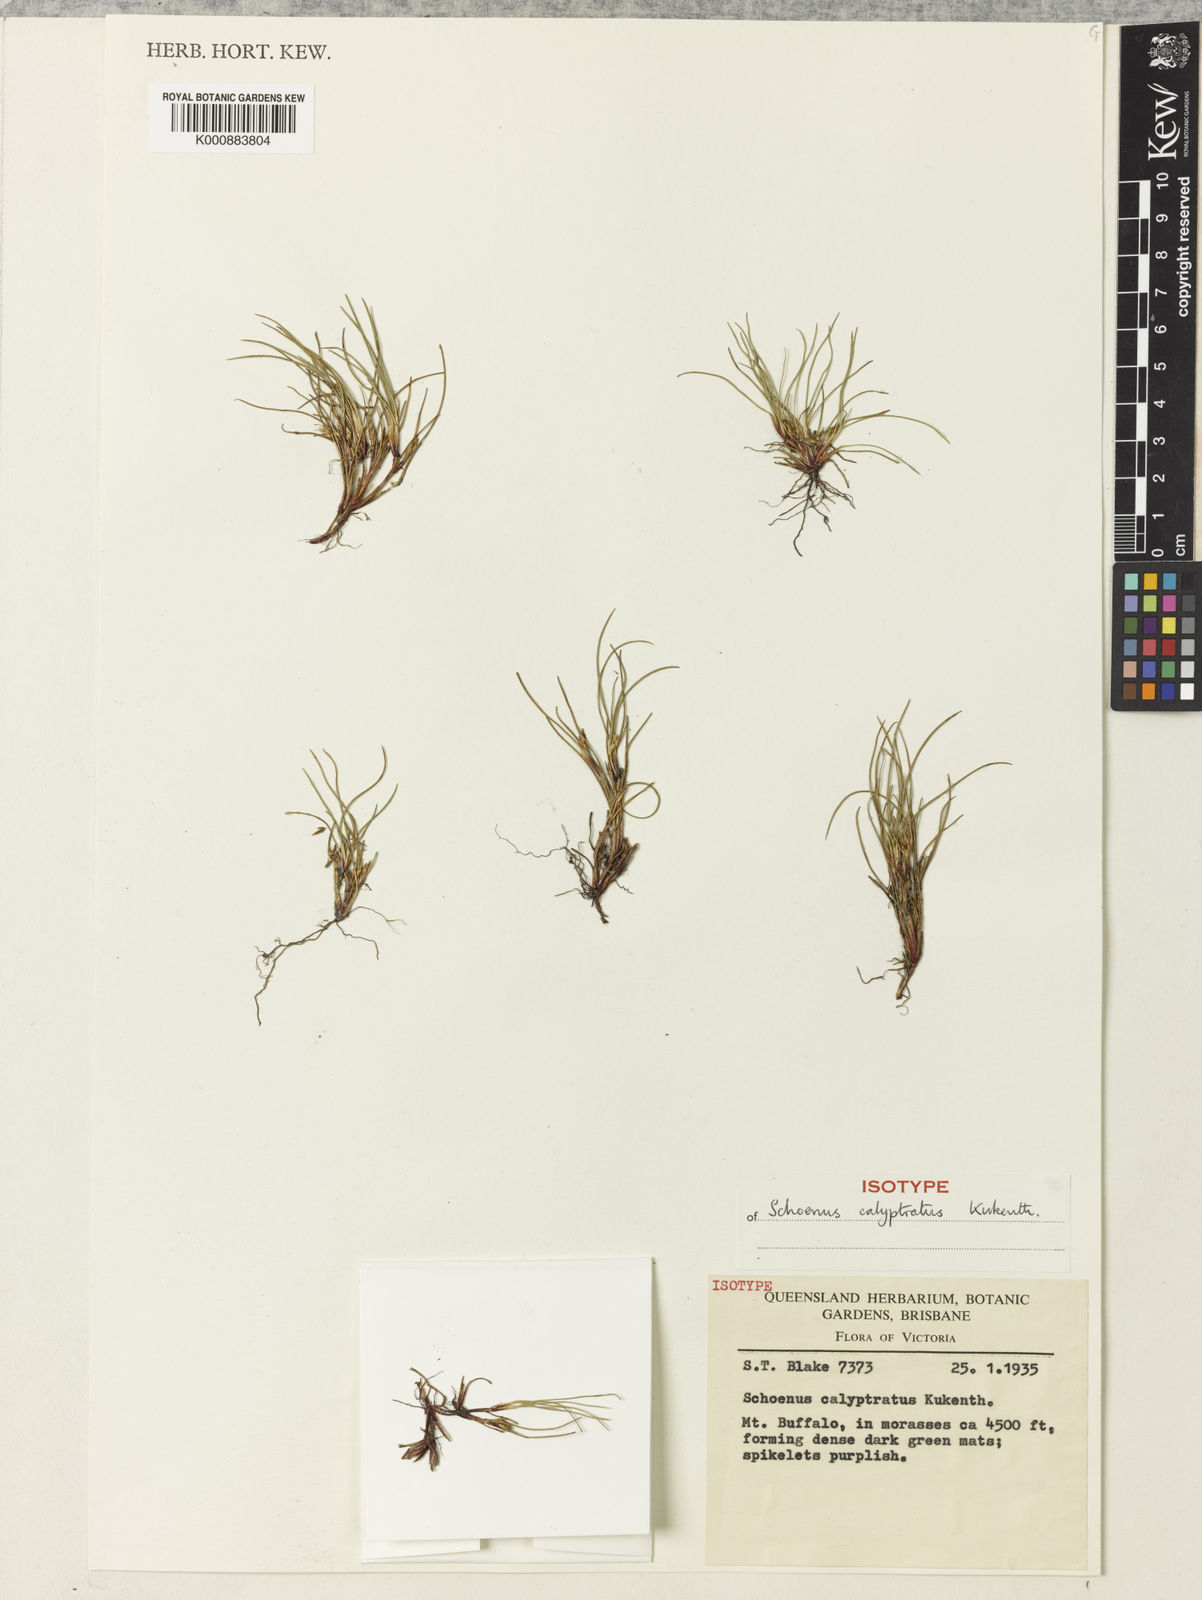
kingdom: Plantae
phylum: Tracheophyta
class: Liliopsida
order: Poales
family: Cyperaceae
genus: Schoenus
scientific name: Schoenus
